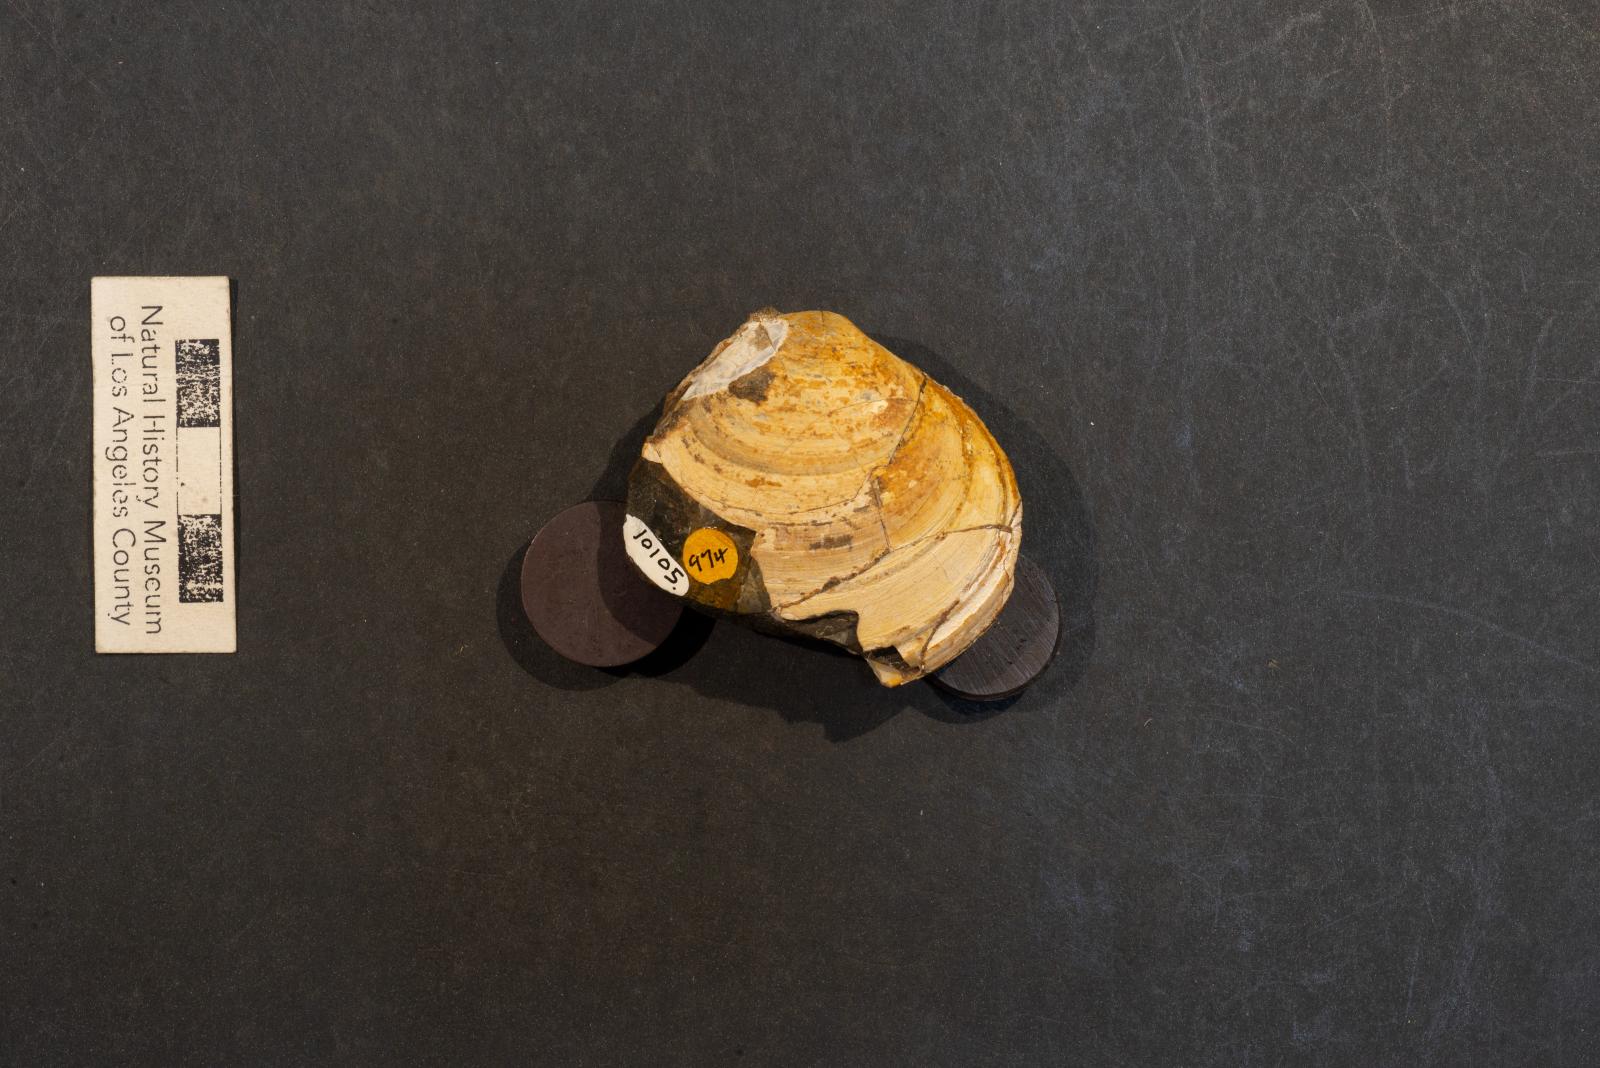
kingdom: Animalia
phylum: Mollusca
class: Bivalvia
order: Venerida
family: Veneridae
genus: Paraesa
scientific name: Paraesa Meretrix lens
